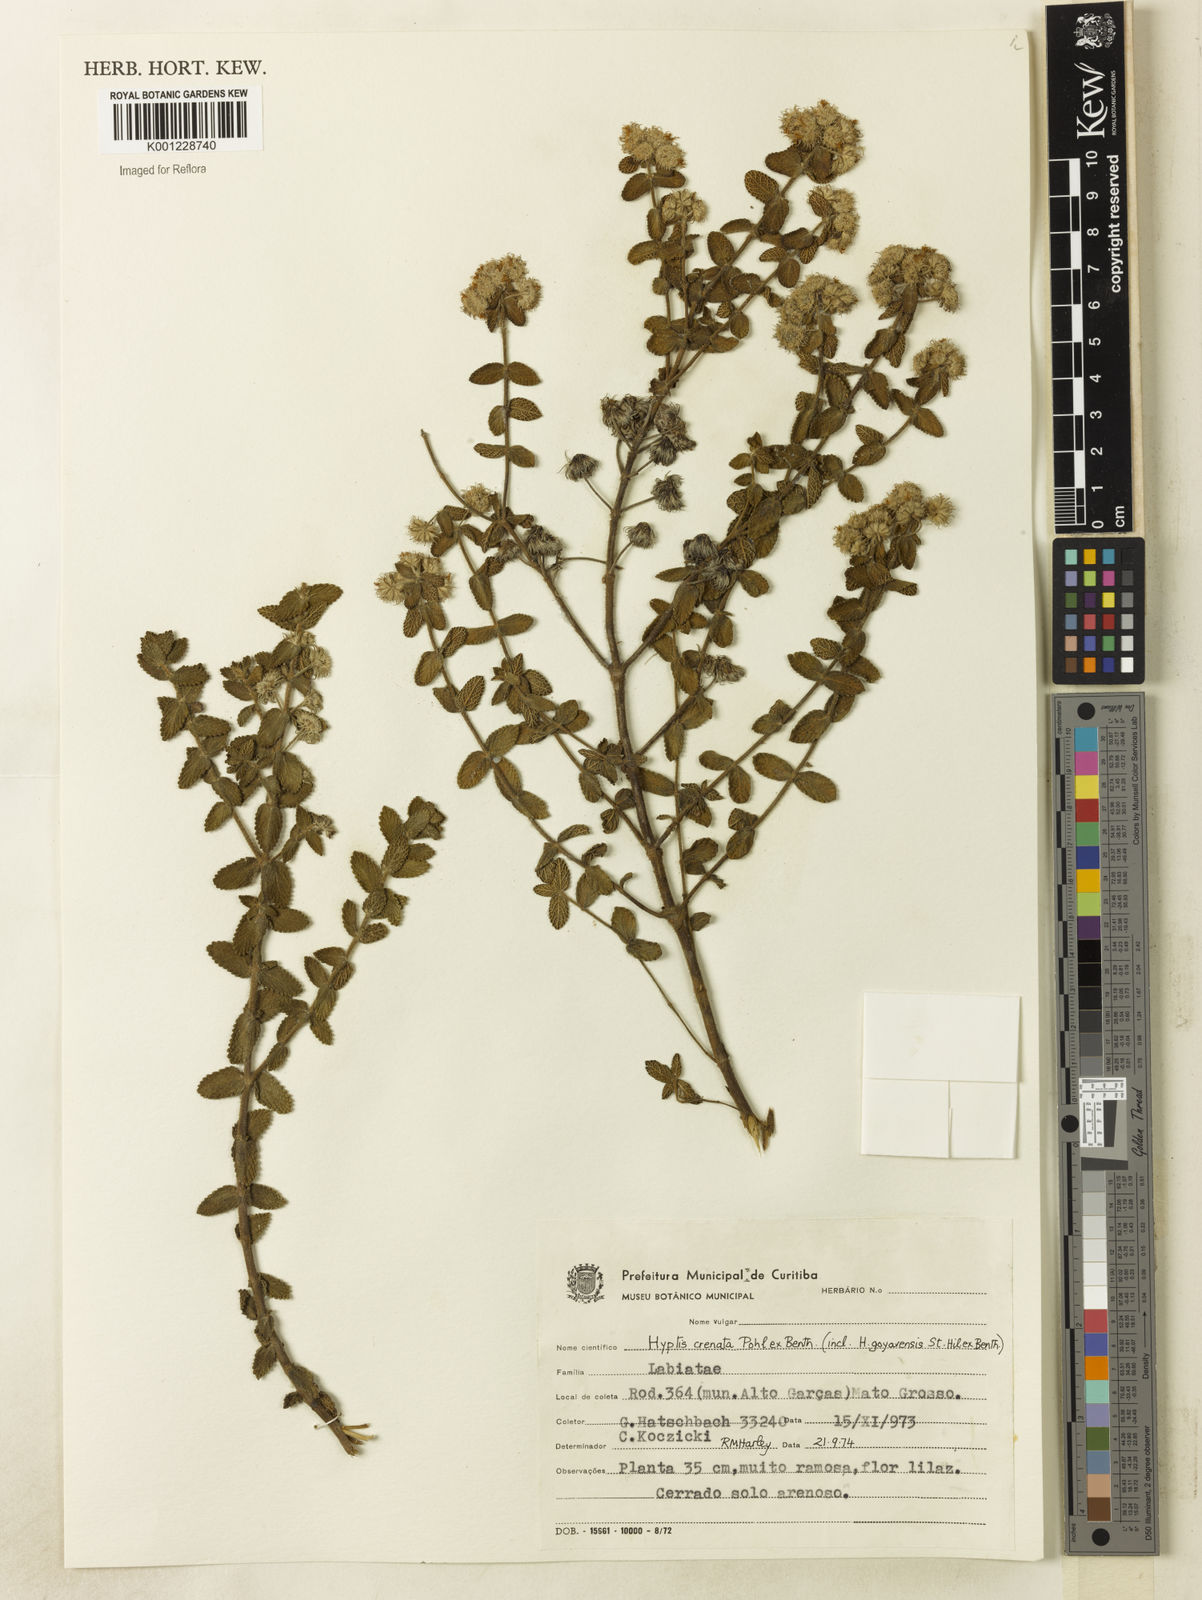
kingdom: Plantae
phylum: Tracheophyta
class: Magnoliopsida
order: Lamiales
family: Lamiaceae
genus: Hyptis
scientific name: Hyptis crenata
